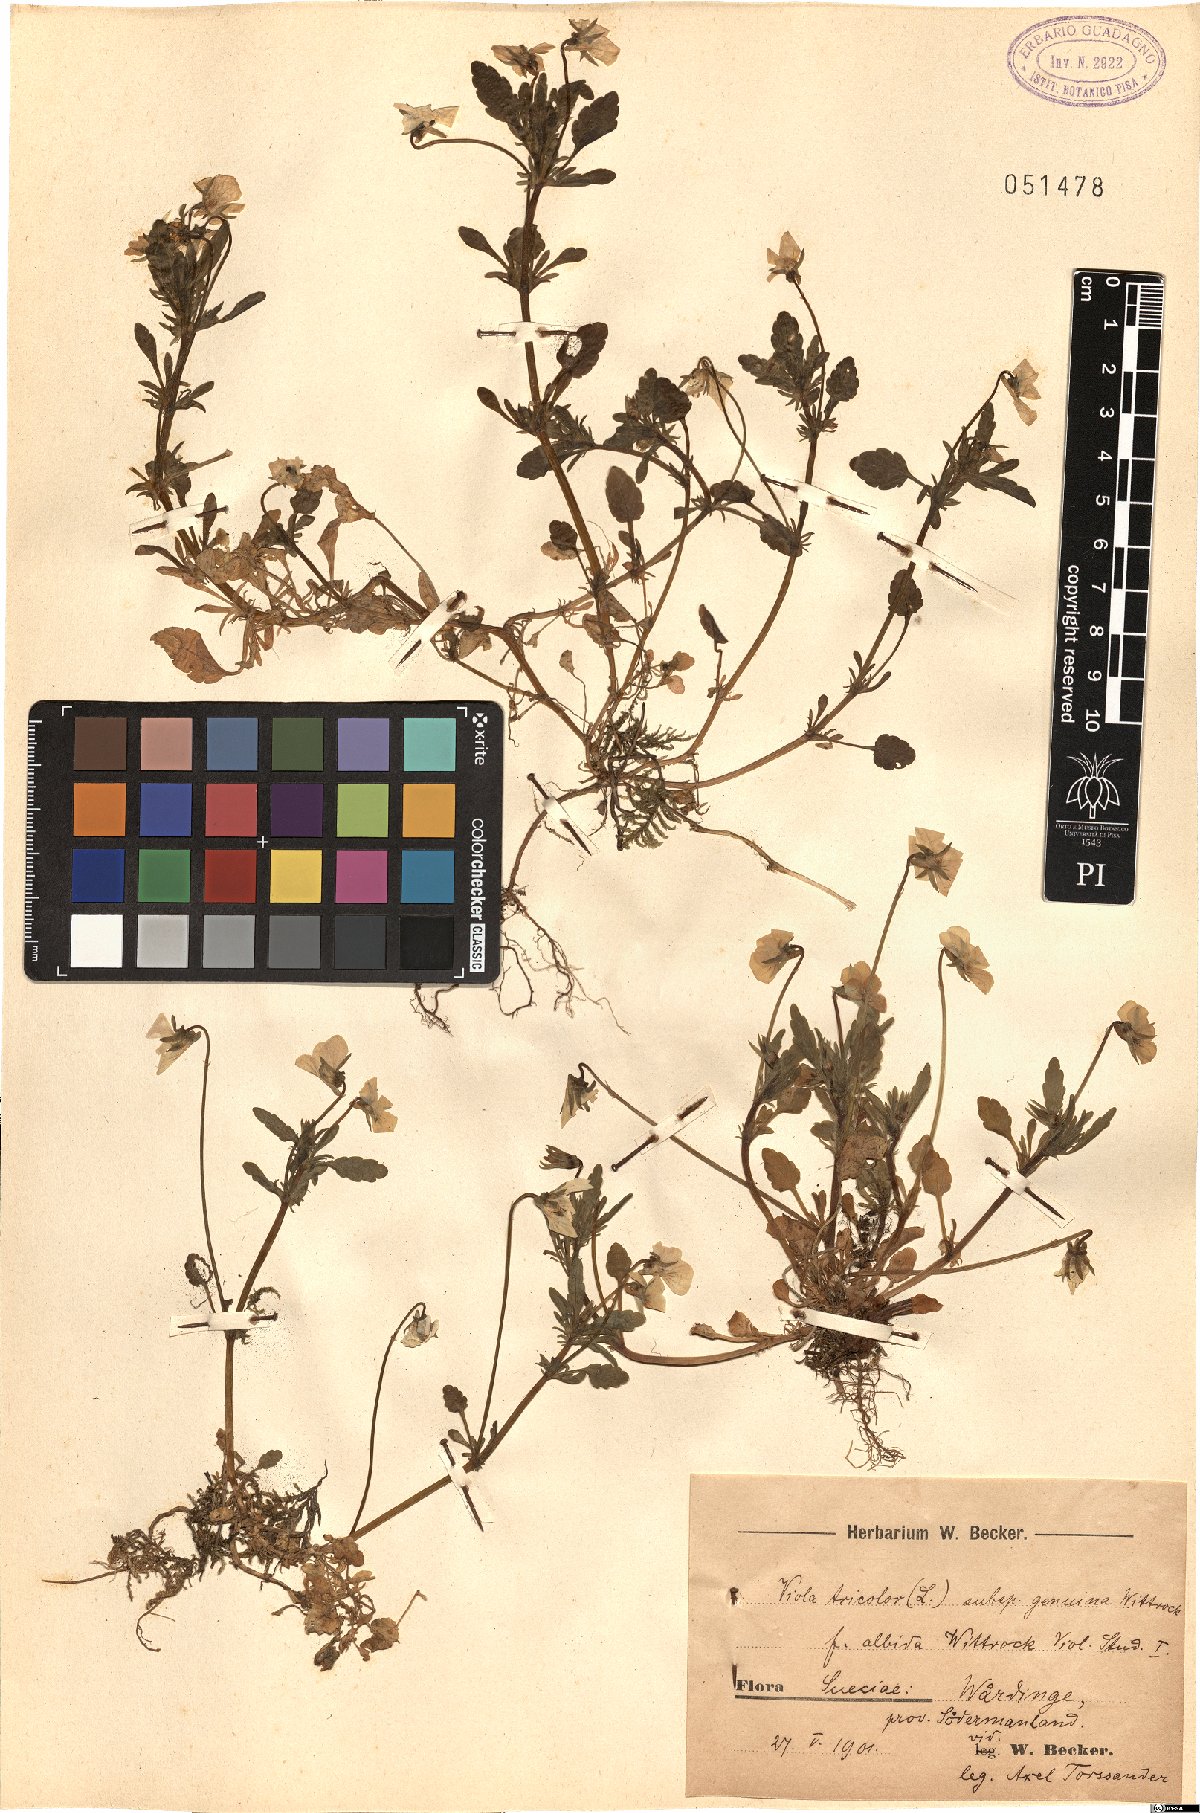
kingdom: Plantae
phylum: Tracheophyta
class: Magnoliopsida
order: Malpighiales
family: Violaceae
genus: Viola
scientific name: Viola tricolor
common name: Pansy
